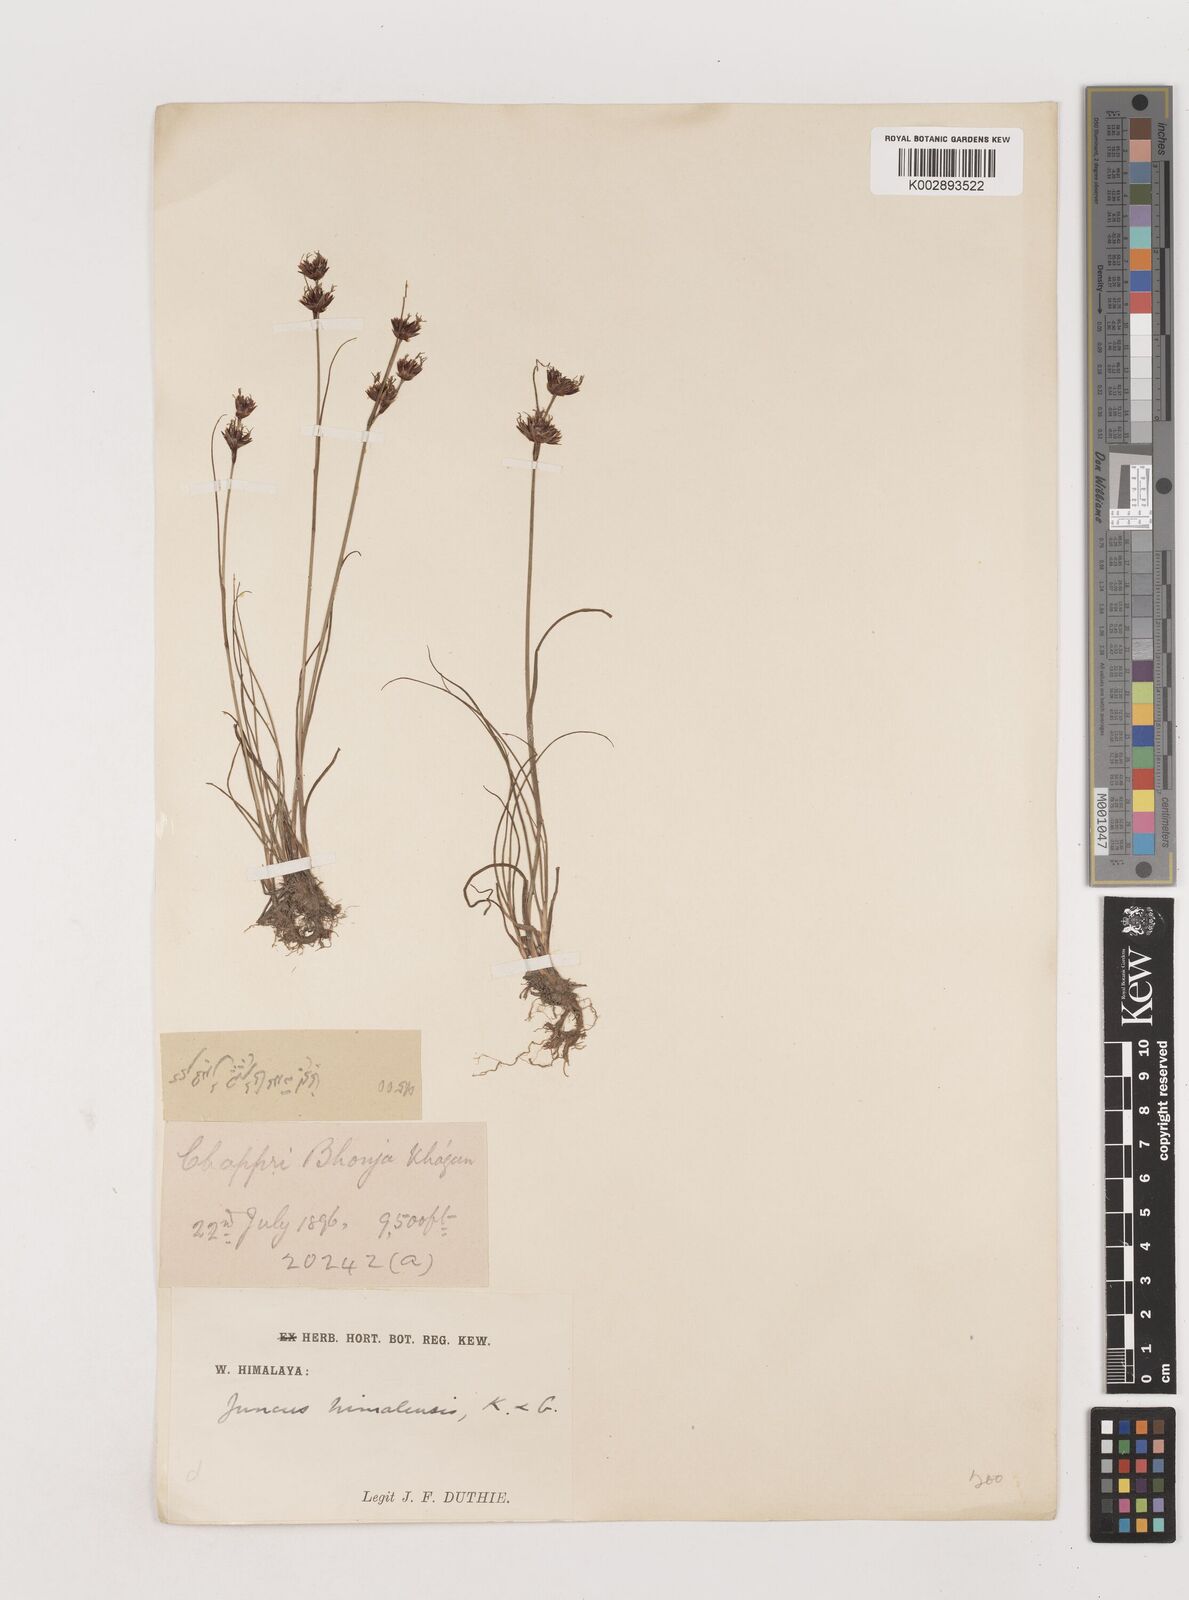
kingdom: Plantae
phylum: Tracheophyta
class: Liliopsida
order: Poales
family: Juncaceae
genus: Juncus
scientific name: Juncus himalensis
